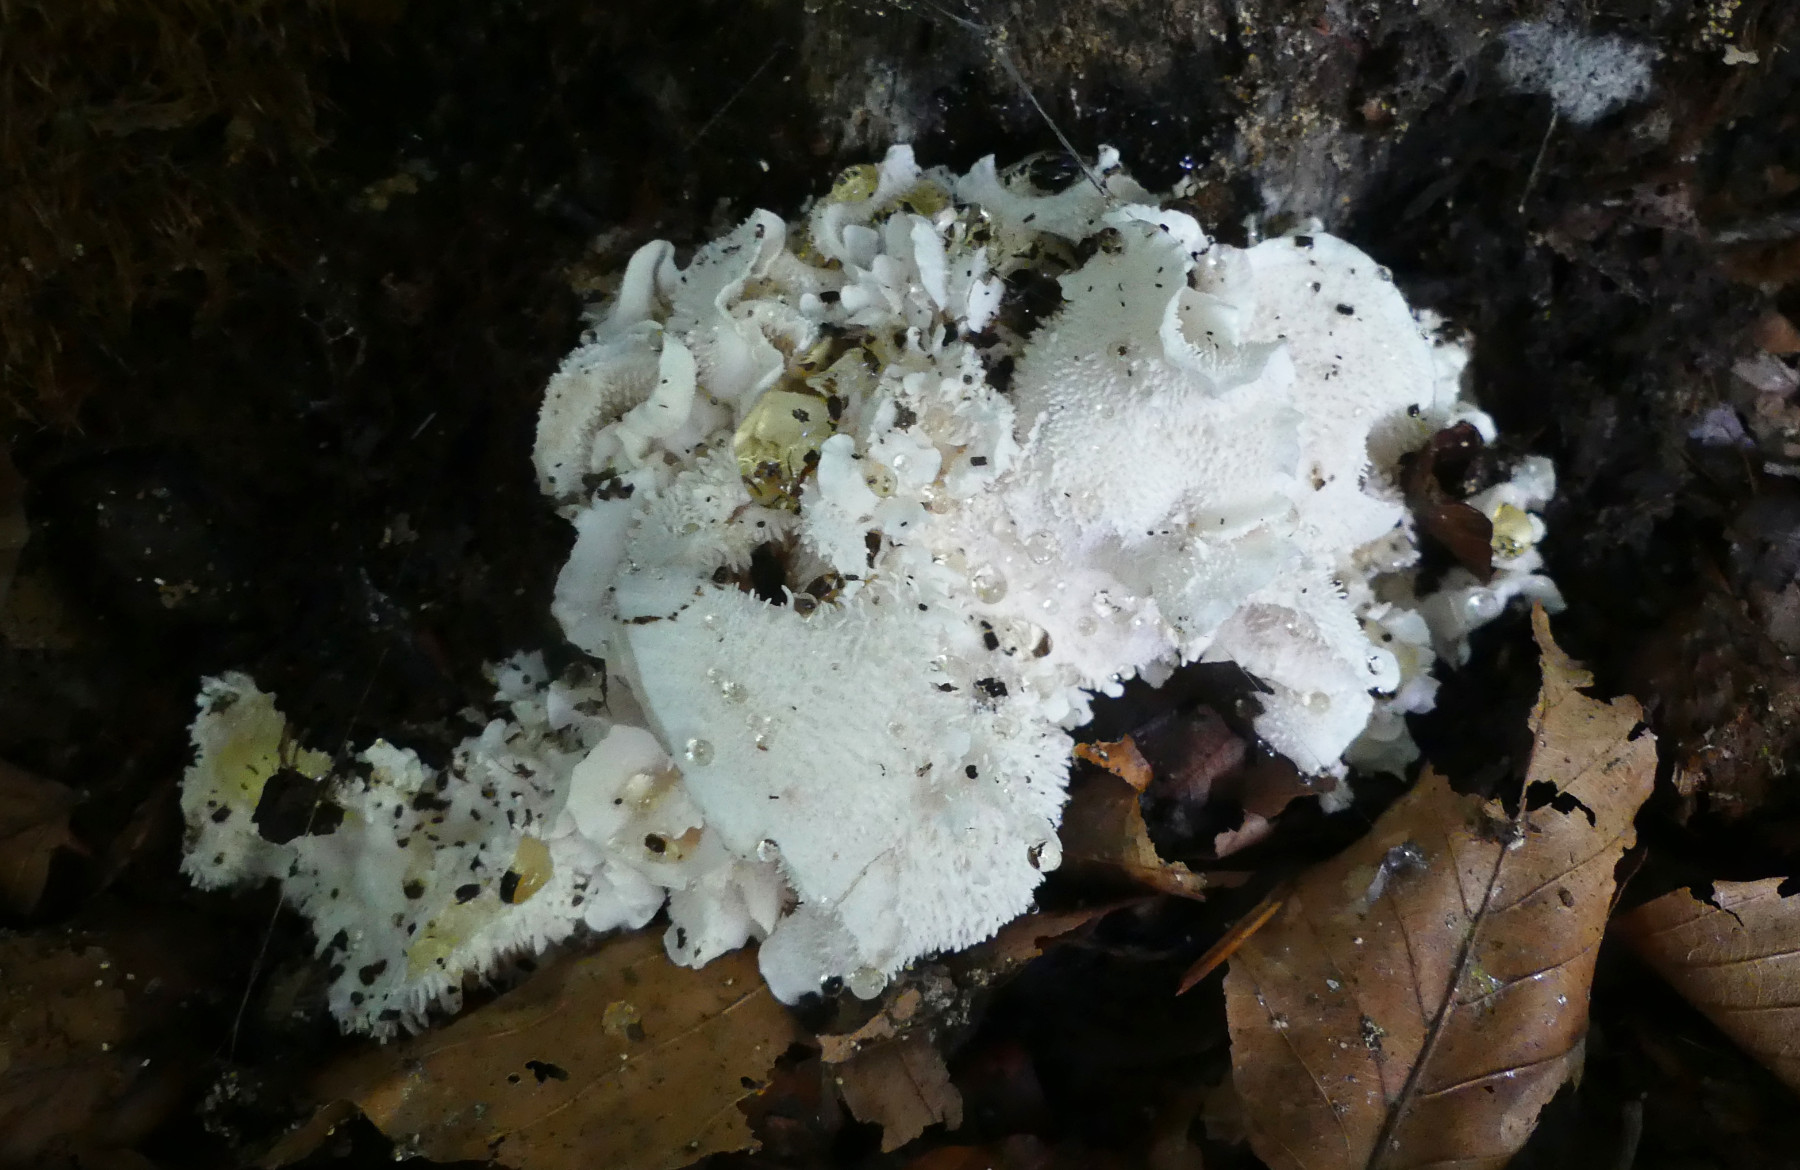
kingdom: Fungi
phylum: Basidiomycota
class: Agaricomycetes
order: Russulales
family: Hericiaceae
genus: Hericium
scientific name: Hericium cirrhatum
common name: børstepigsvamp
